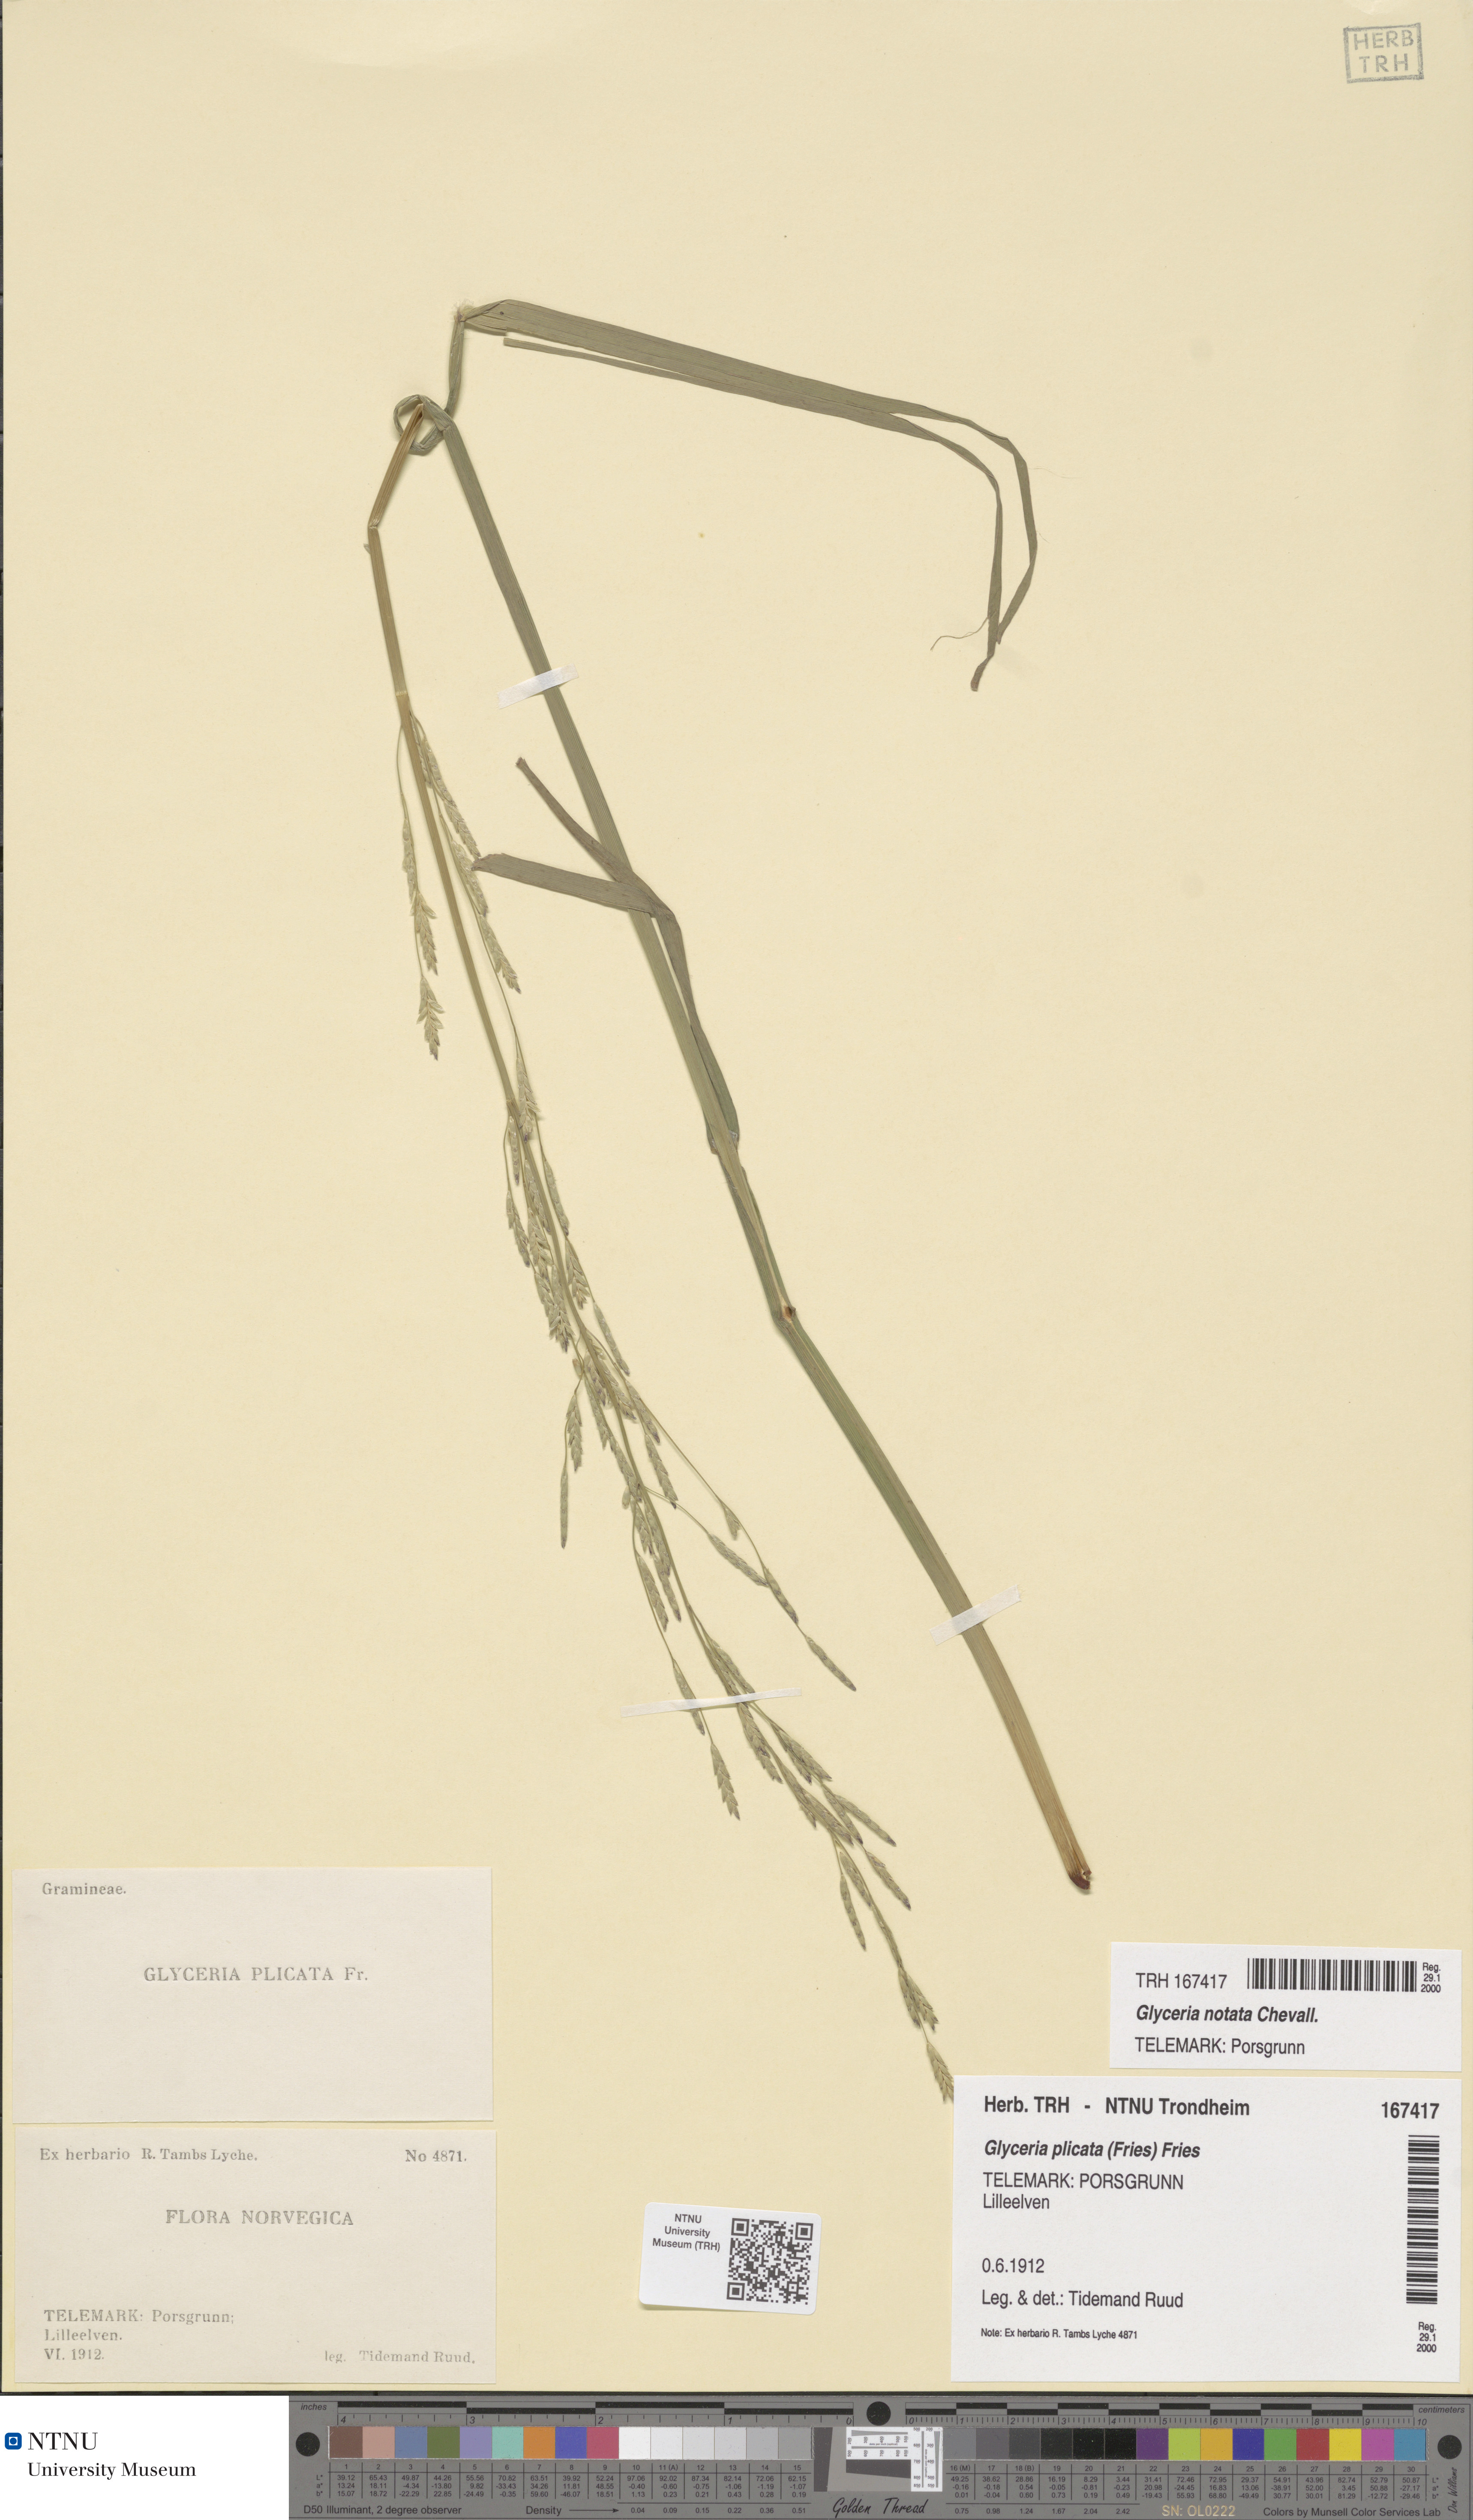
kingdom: Plantae
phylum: Tracheophyta
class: Liliopsida
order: Poales
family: Poaceae
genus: Glyceria
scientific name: Glyceria notata
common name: Plicate sweet-grass
